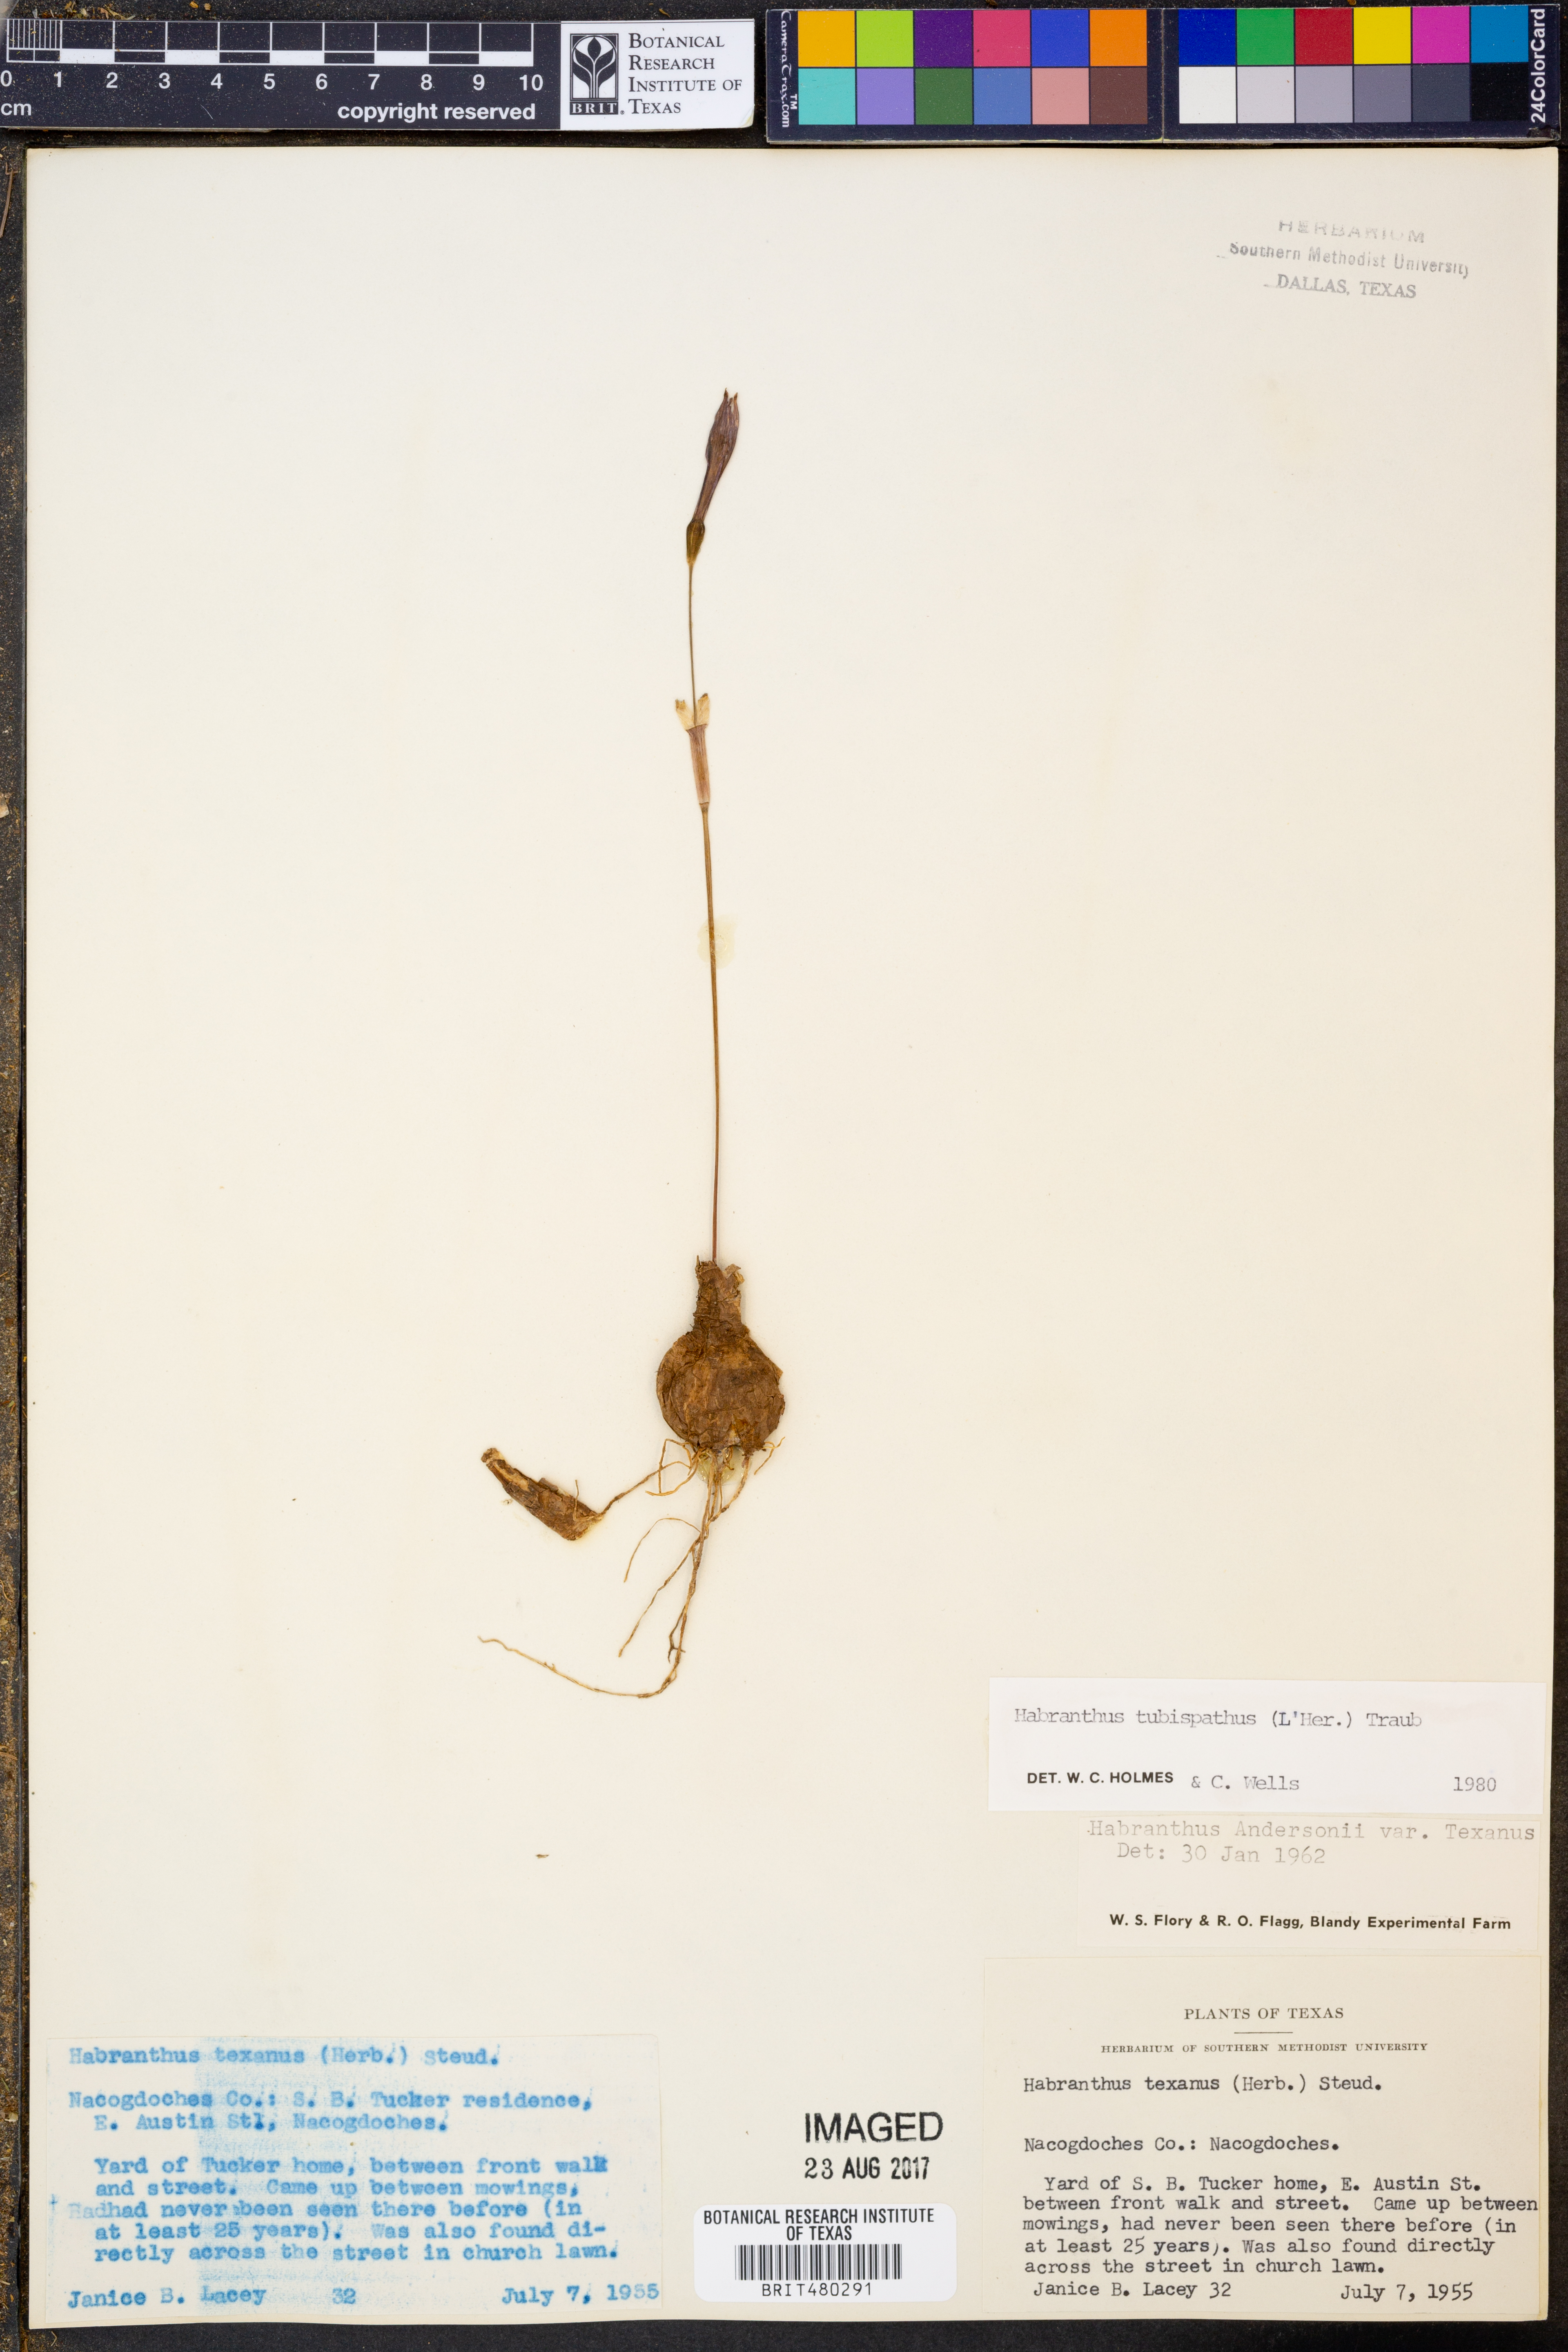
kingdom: Plantae
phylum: Tracheophyta
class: Liliopsida
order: Asparagales
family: Amaryllidaceae
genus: Zephyranthes
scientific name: Zephyranthes tubispatha
